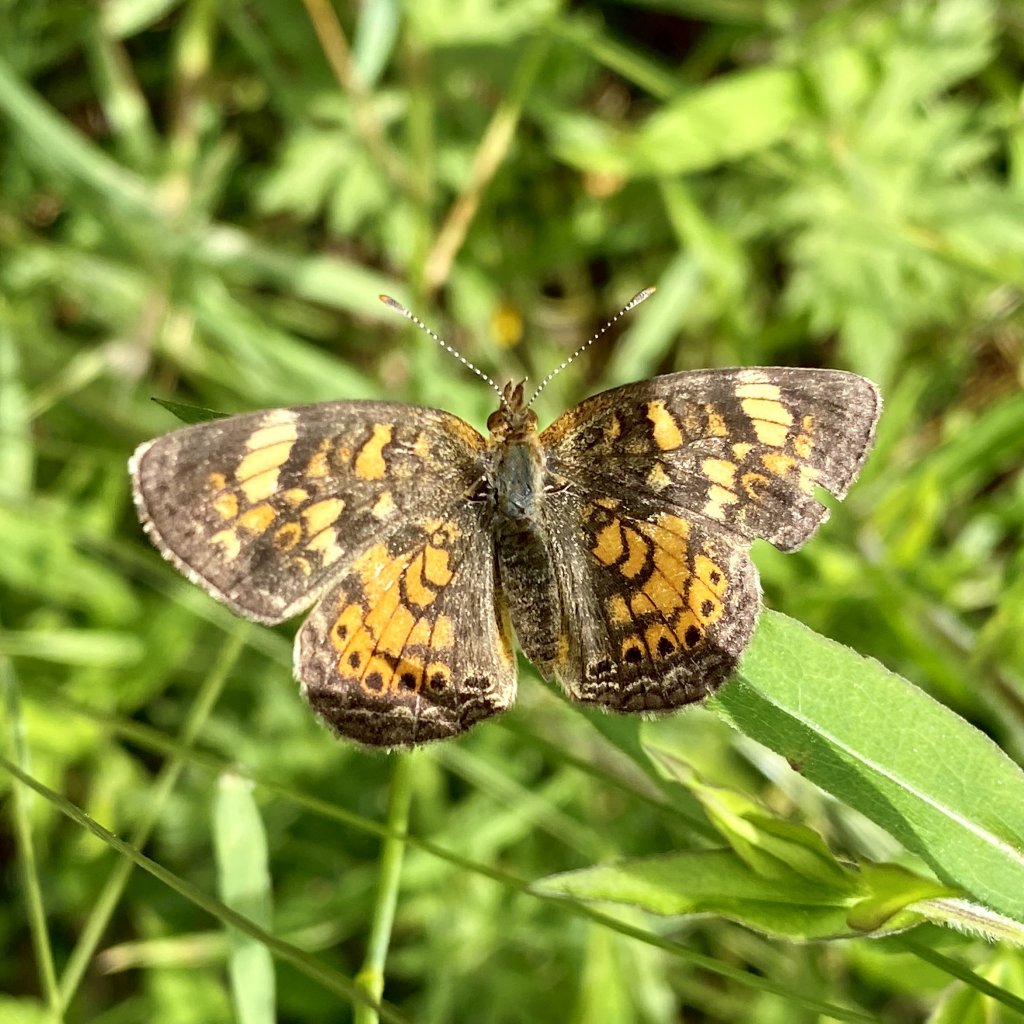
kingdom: Animalia
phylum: Arthropoda
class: Insecta
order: Lepidoptera
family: Nymphalidae
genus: Phyciodes
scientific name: Phyciodes
